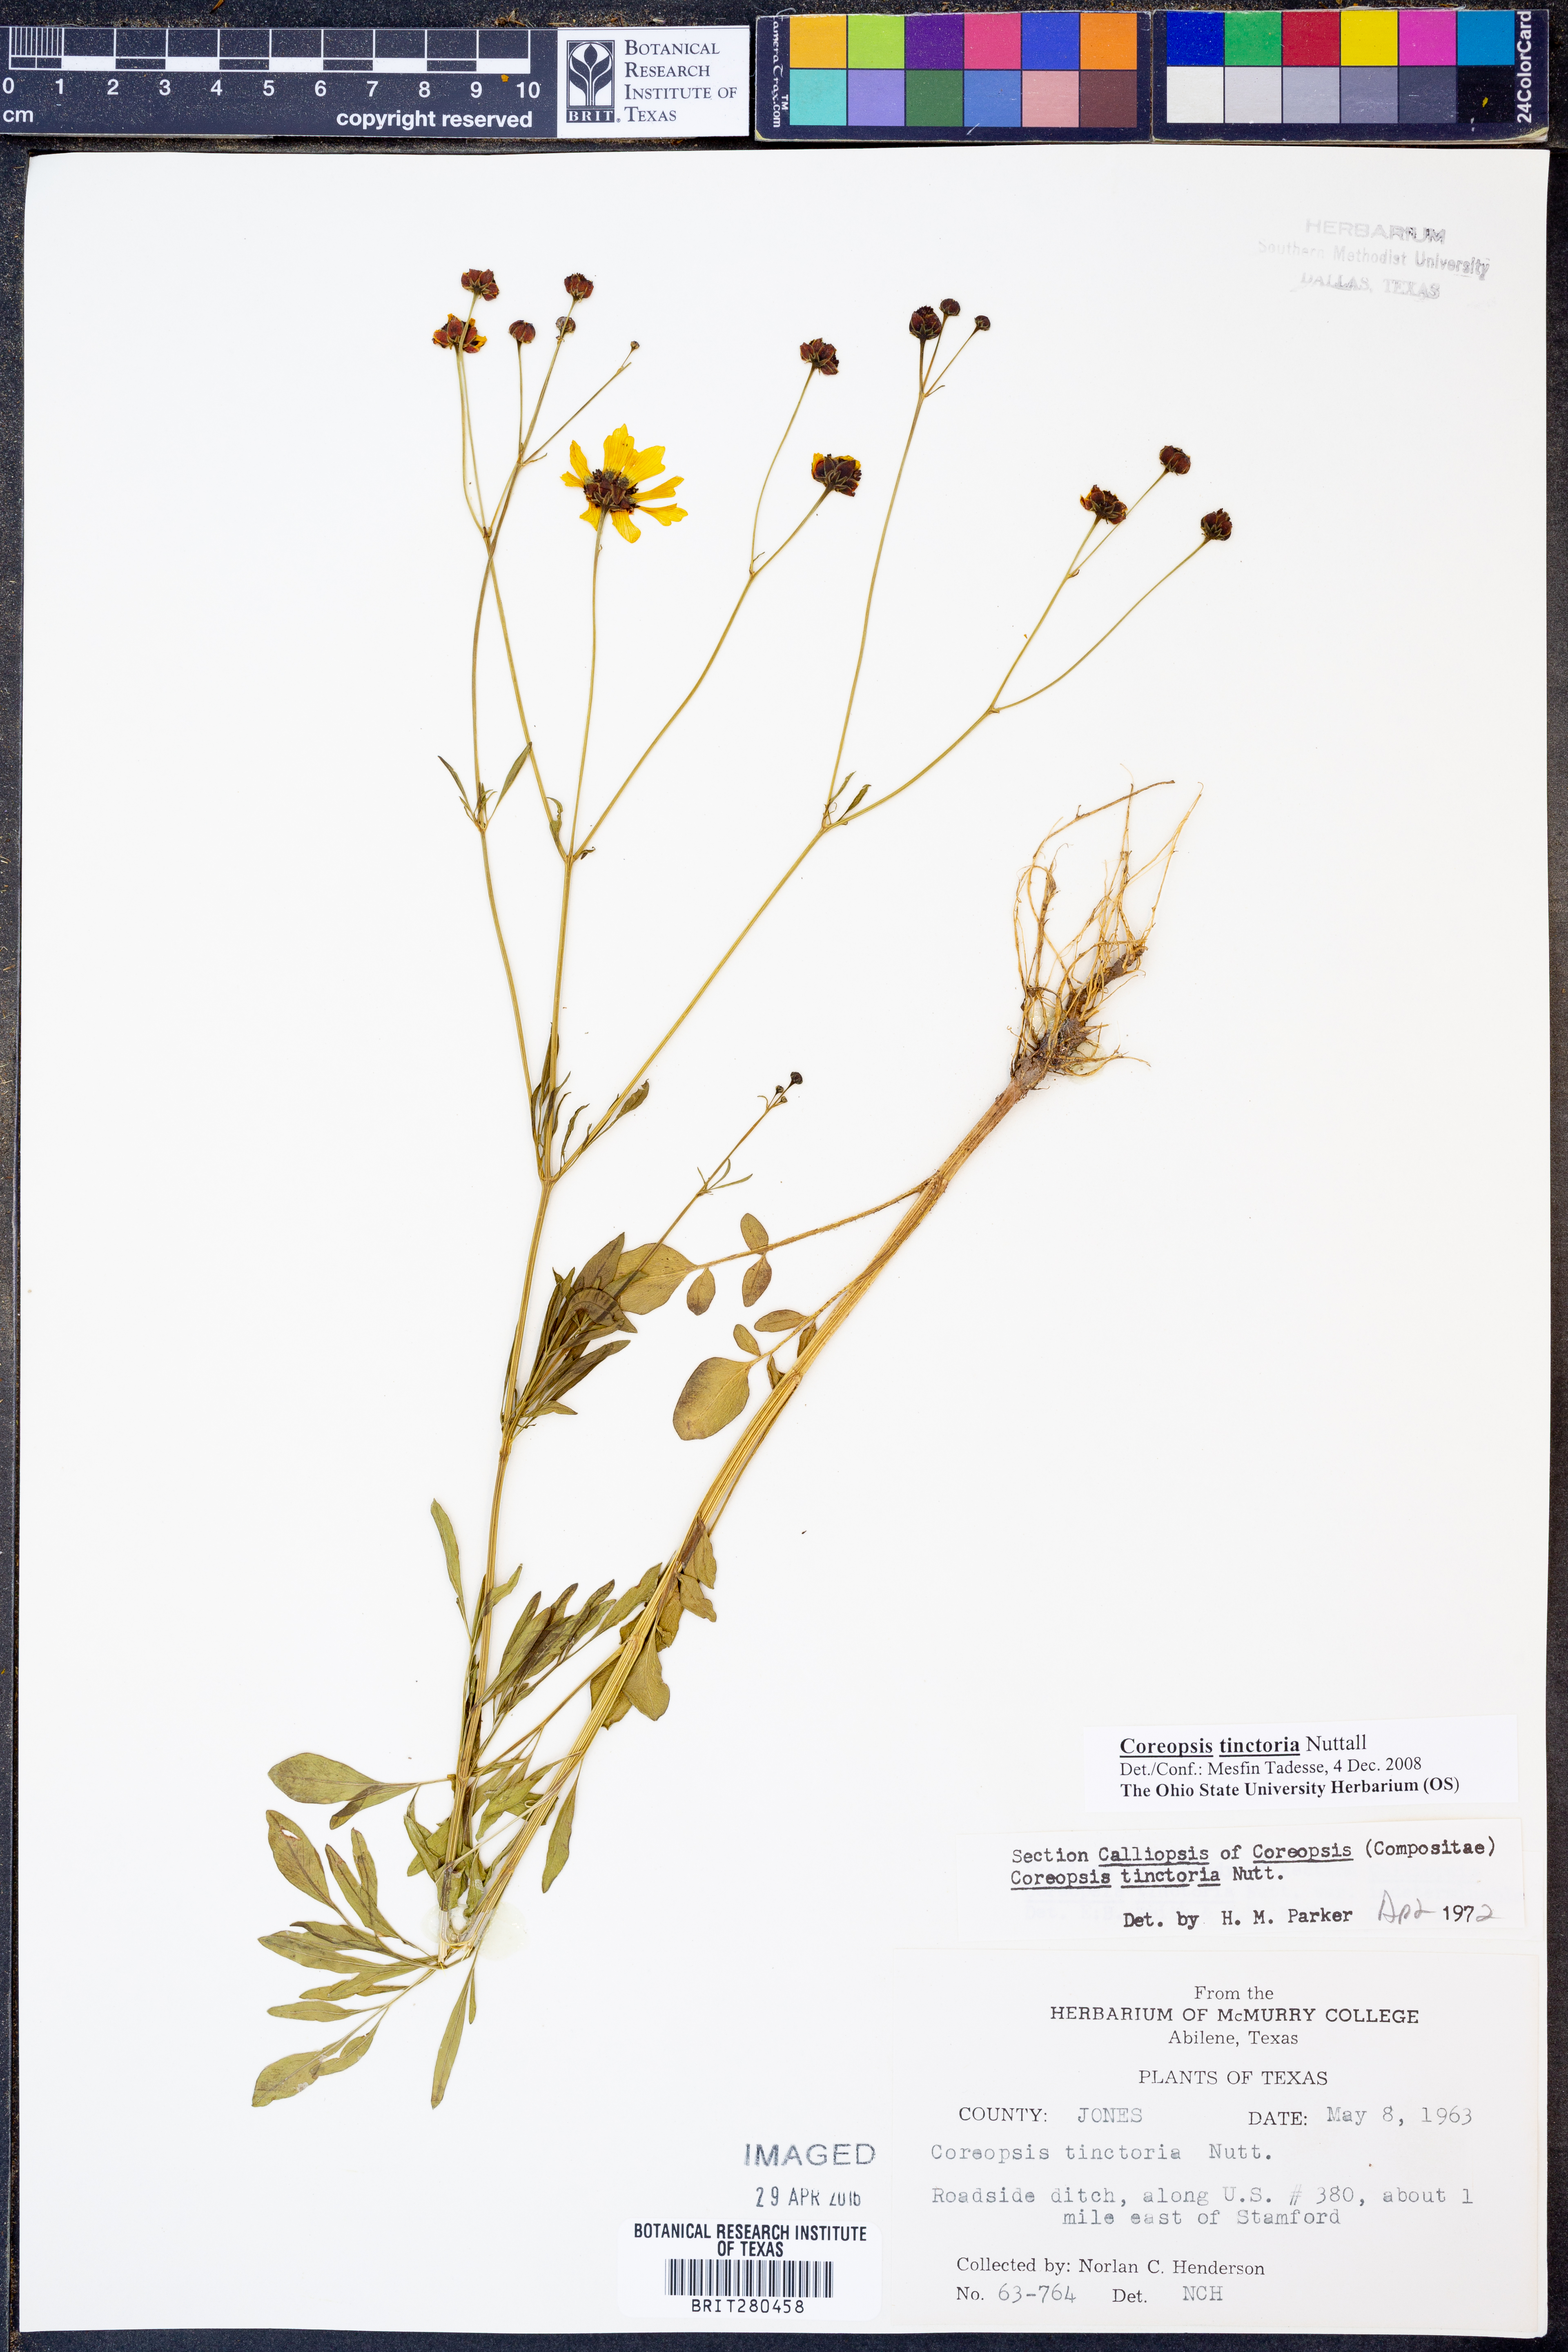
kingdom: Plantae
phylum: Tracheophyta
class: Magnoliopsida
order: Asterales
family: Asteraceae
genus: Coreopsis
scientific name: Coreopsis tinctoria
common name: Garden tickseed
